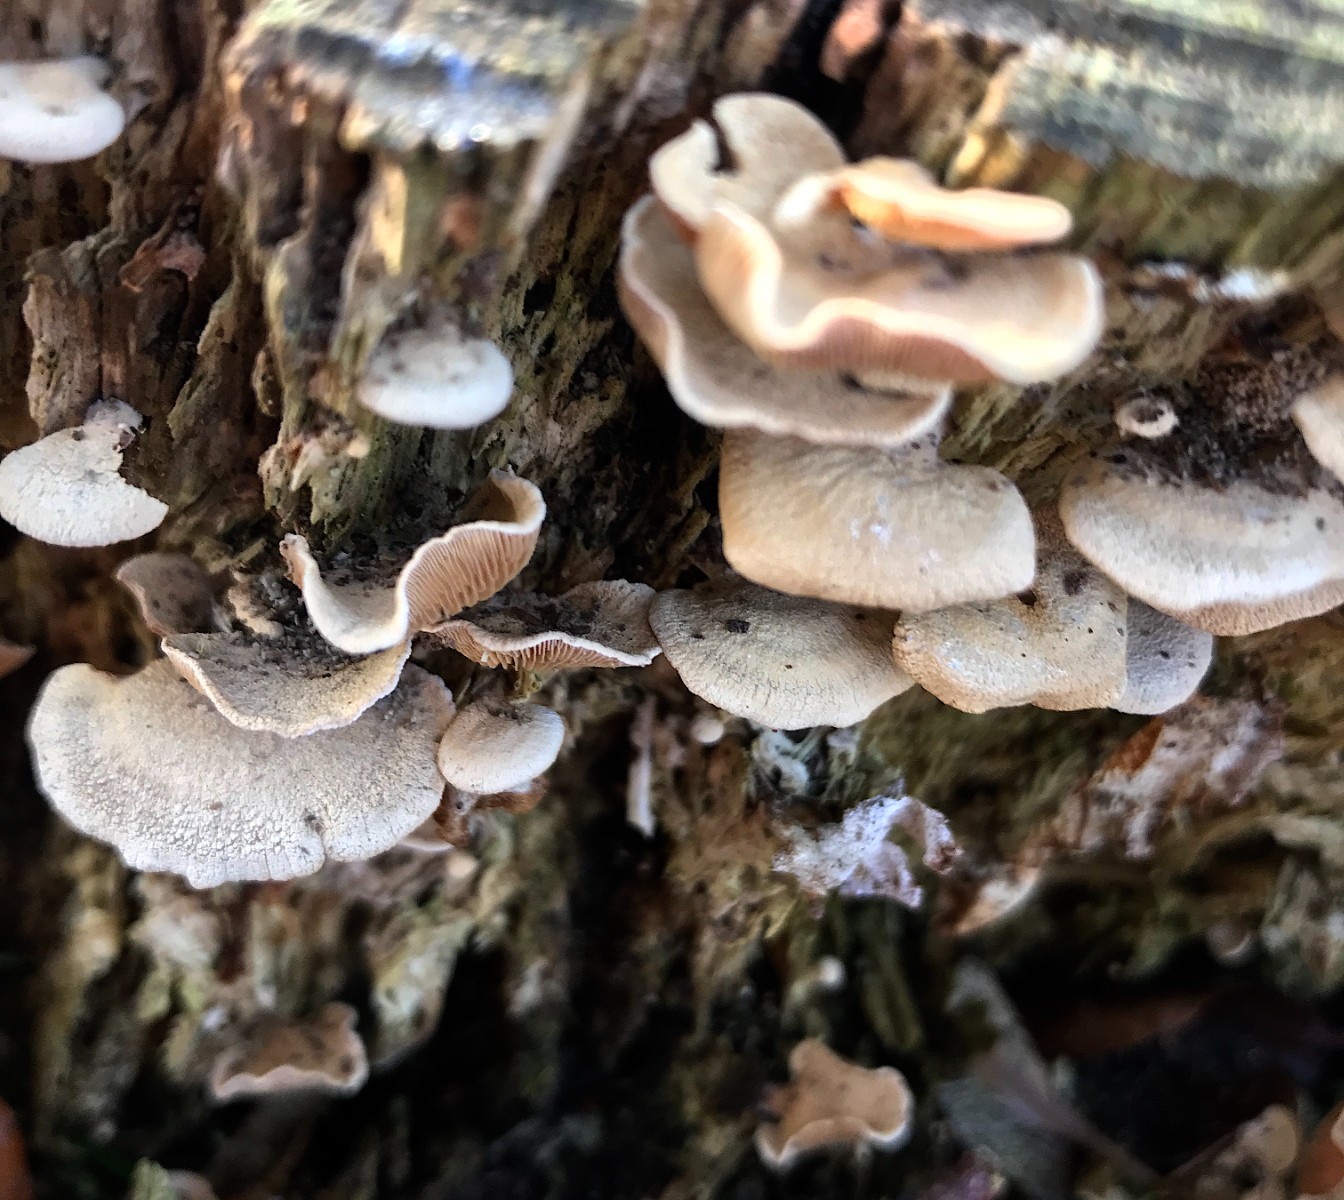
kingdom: Fungi
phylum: Basidiomycota
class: Agaricomycetes
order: Agaricales
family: Mycenaceae
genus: Panellus
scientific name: Panellus stipticus
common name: kliddet epaulethat
